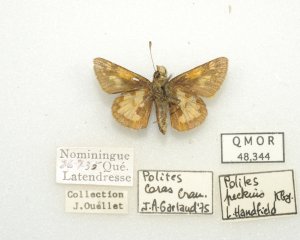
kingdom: Animalia
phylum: Arthropoda
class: Insecta
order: Lepidoptera
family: Hesperiidae
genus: Polites
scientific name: Polites coras
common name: Peck's Skipper
